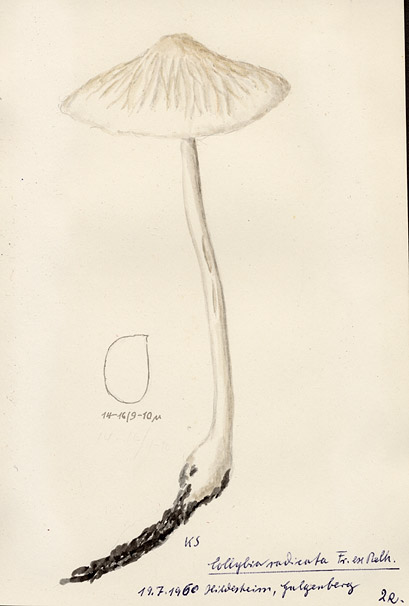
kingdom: Fungi
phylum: Basidiomycota
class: Agaricomycetes
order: Agaricales
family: Physalacriaceae
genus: Hymenopellis
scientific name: Hymenopellis radicata
